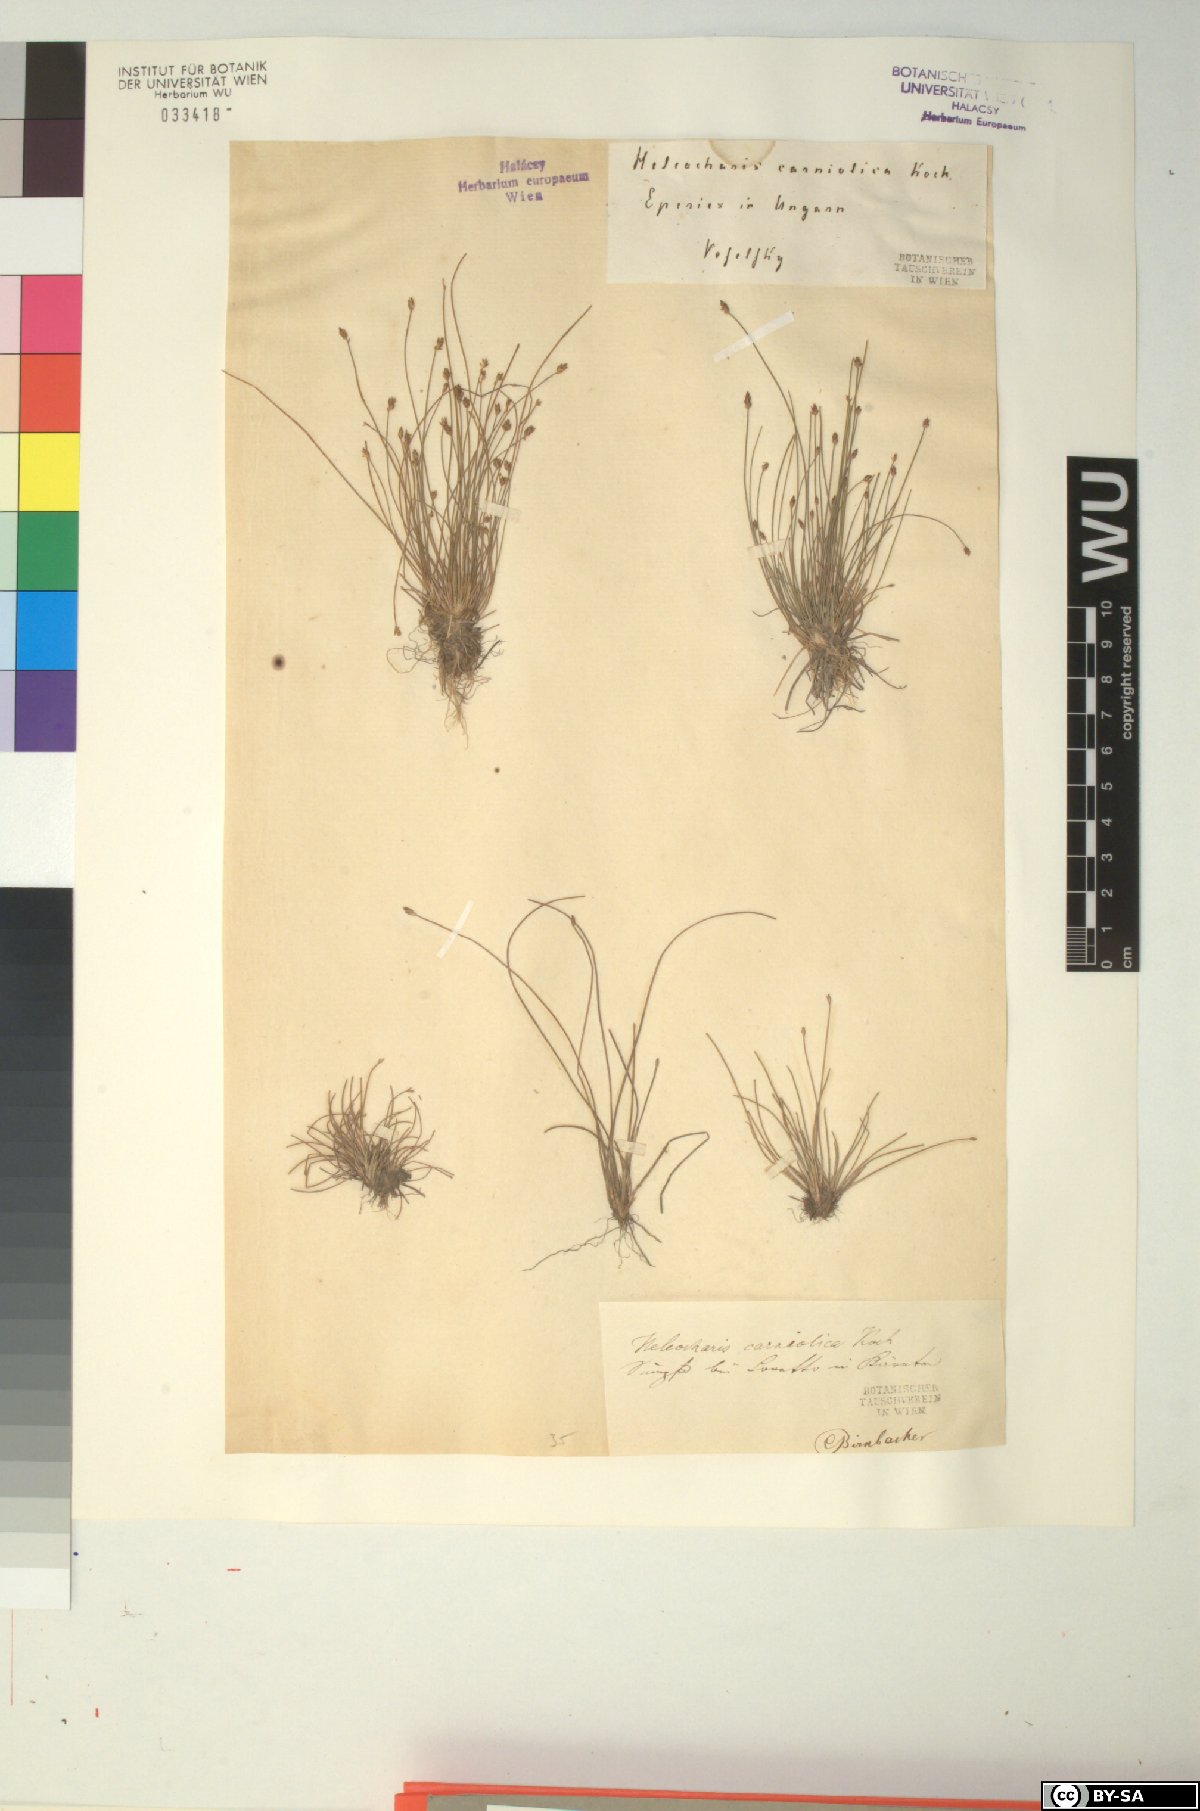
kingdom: Plantae
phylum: Tracheophyta
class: Liliopsida
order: Poales
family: Cyperaceae
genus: Eleocharis
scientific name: Eleocharis carniolica
